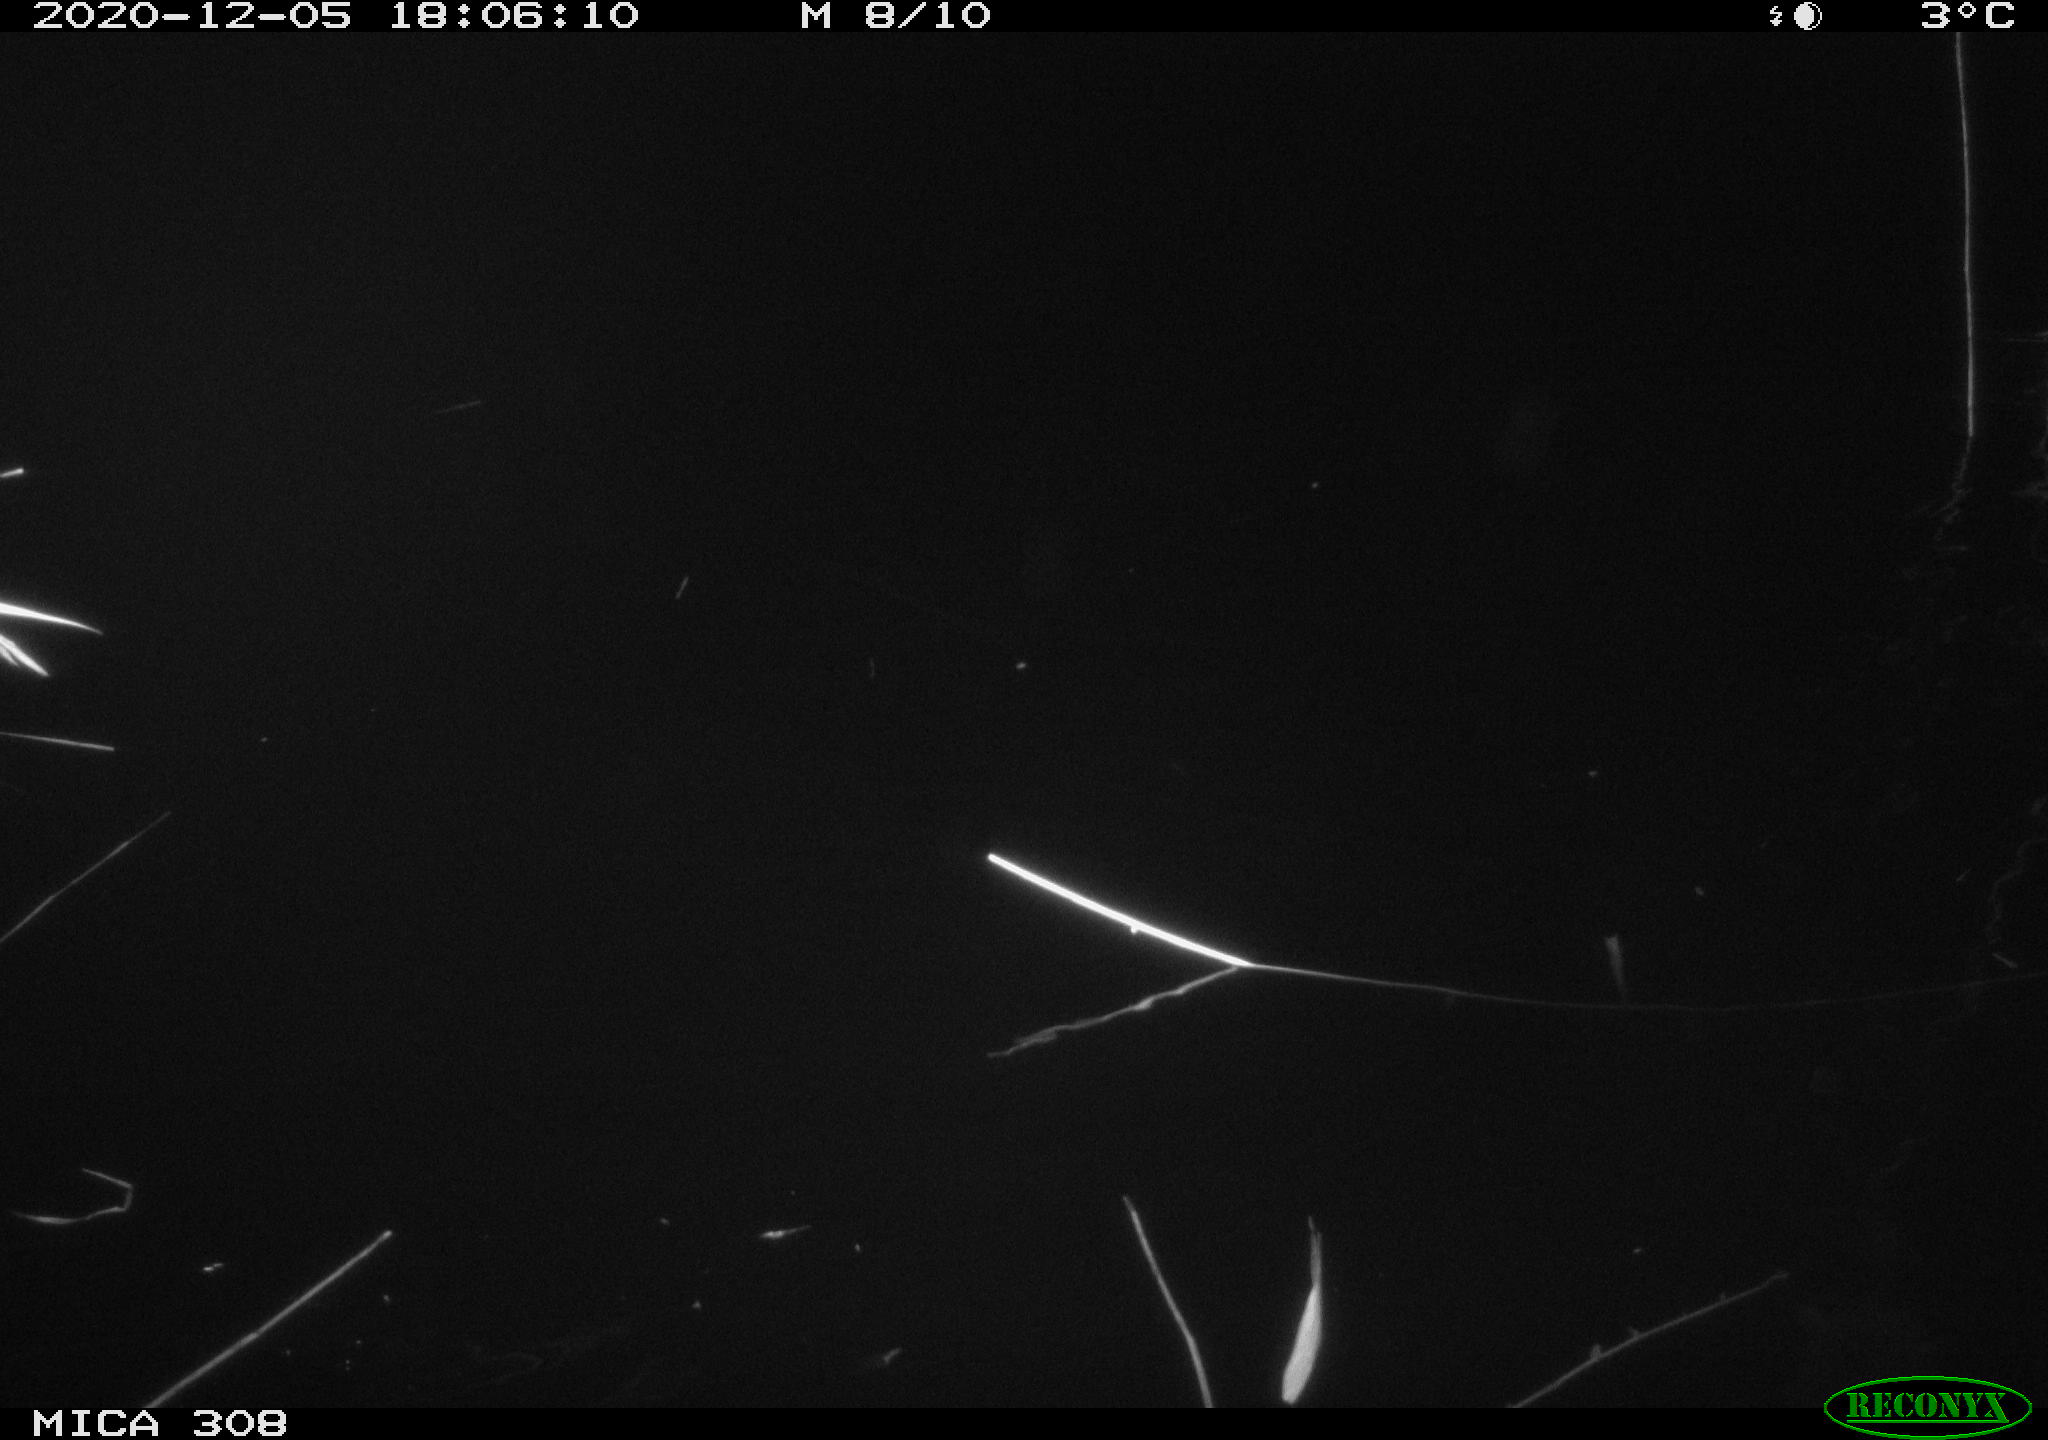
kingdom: Animalia
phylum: Chordata
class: Mammalia
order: Rodentia
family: Muridae
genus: Rattus
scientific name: Rattus norvegicus
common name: Brown rat
